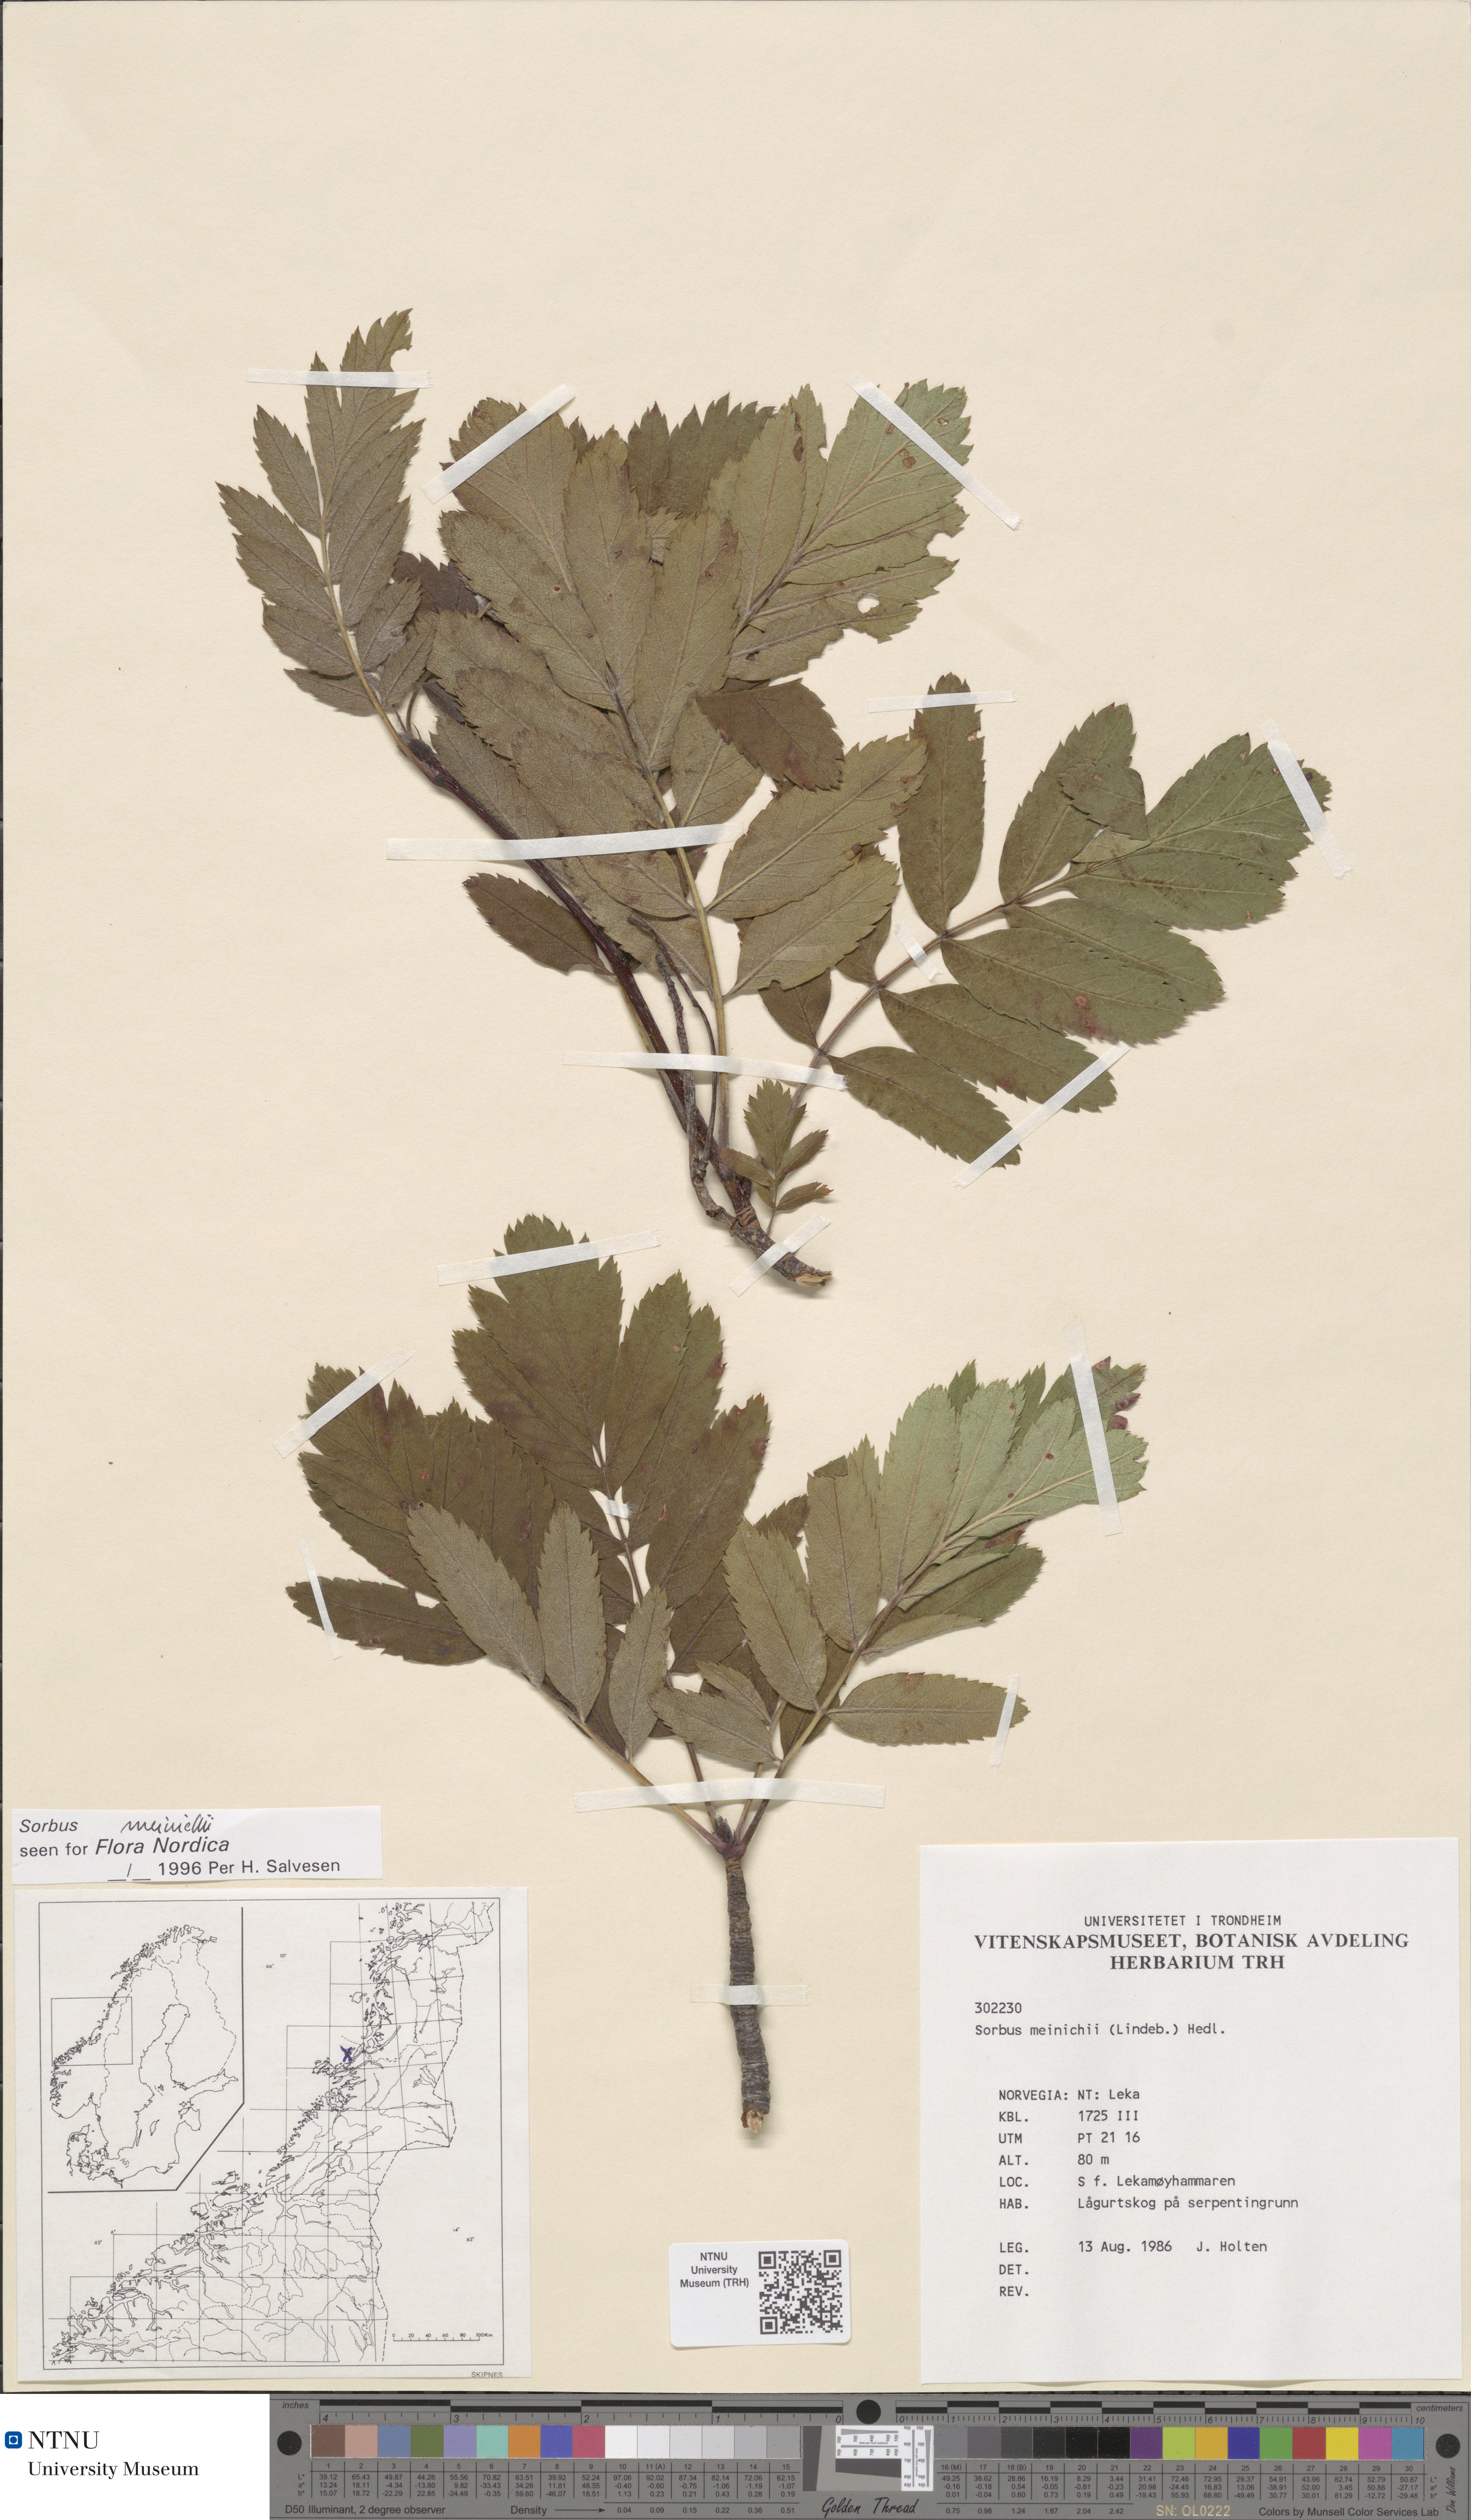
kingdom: Plantae
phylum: Tracheophyta
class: Magnoliopsida
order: Rosales
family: Rosaceae
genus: Hedlundia
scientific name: Hedlundia meinichii
